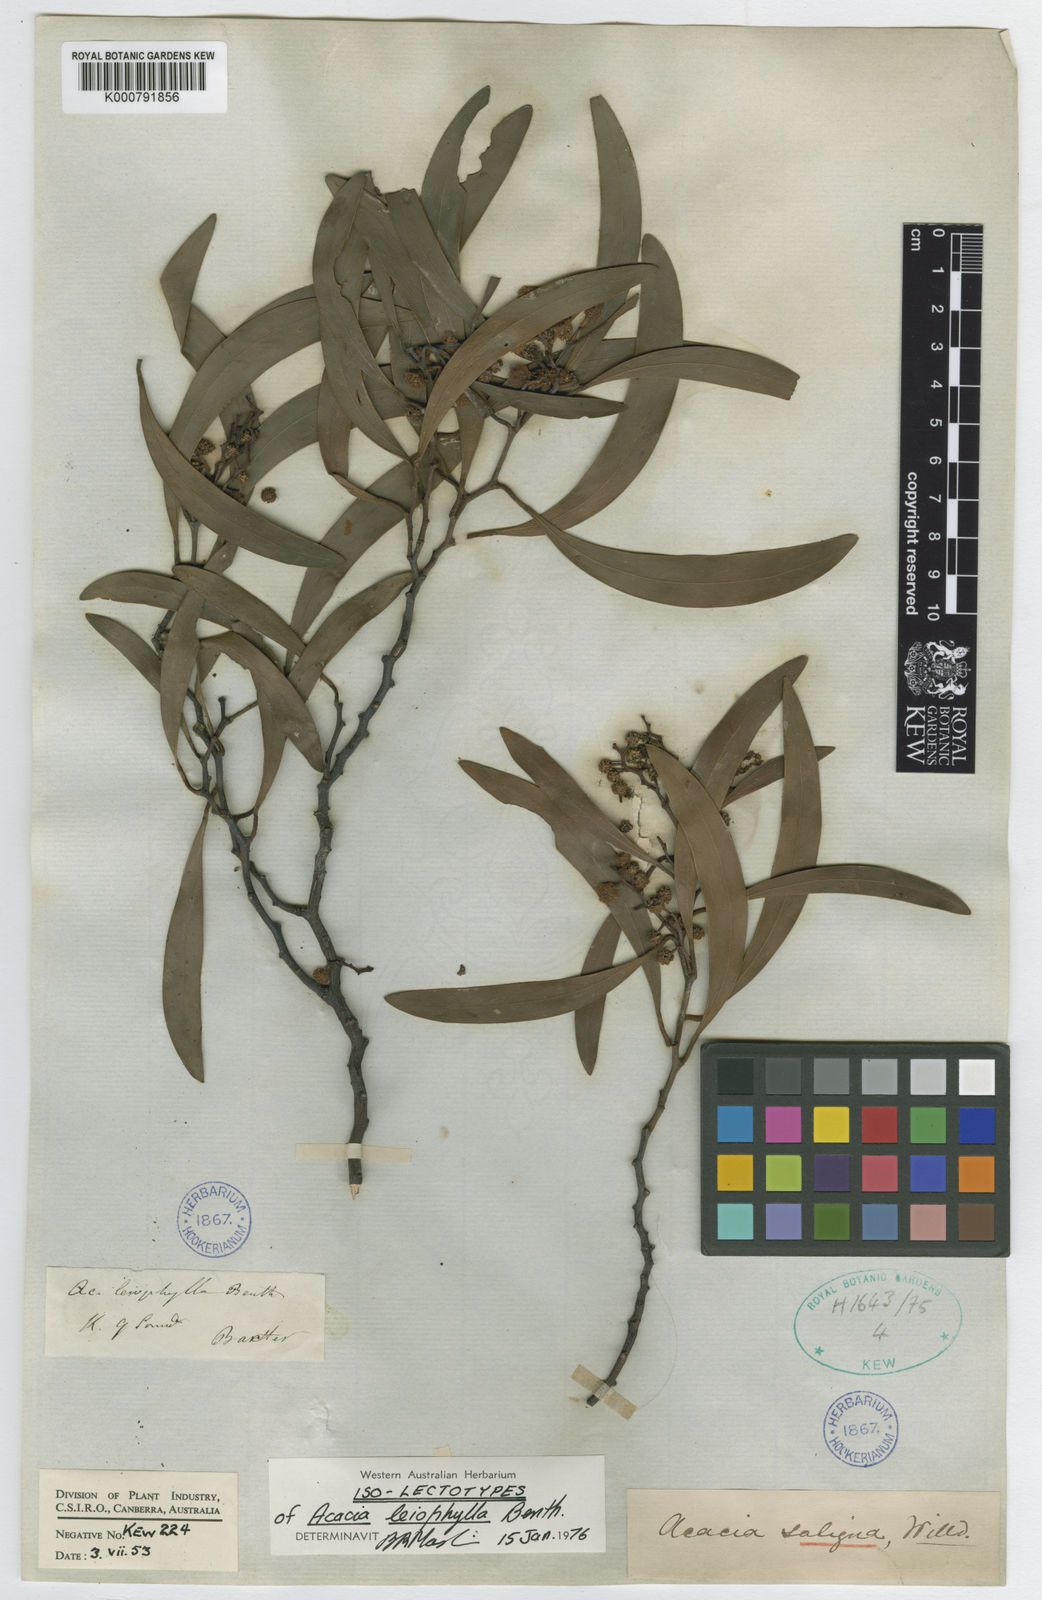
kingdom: Plantae
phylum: Tracheophyta
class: Magnoliopsida
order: Fabales
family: Fabaceae
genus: Acacia
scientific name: Acacia
